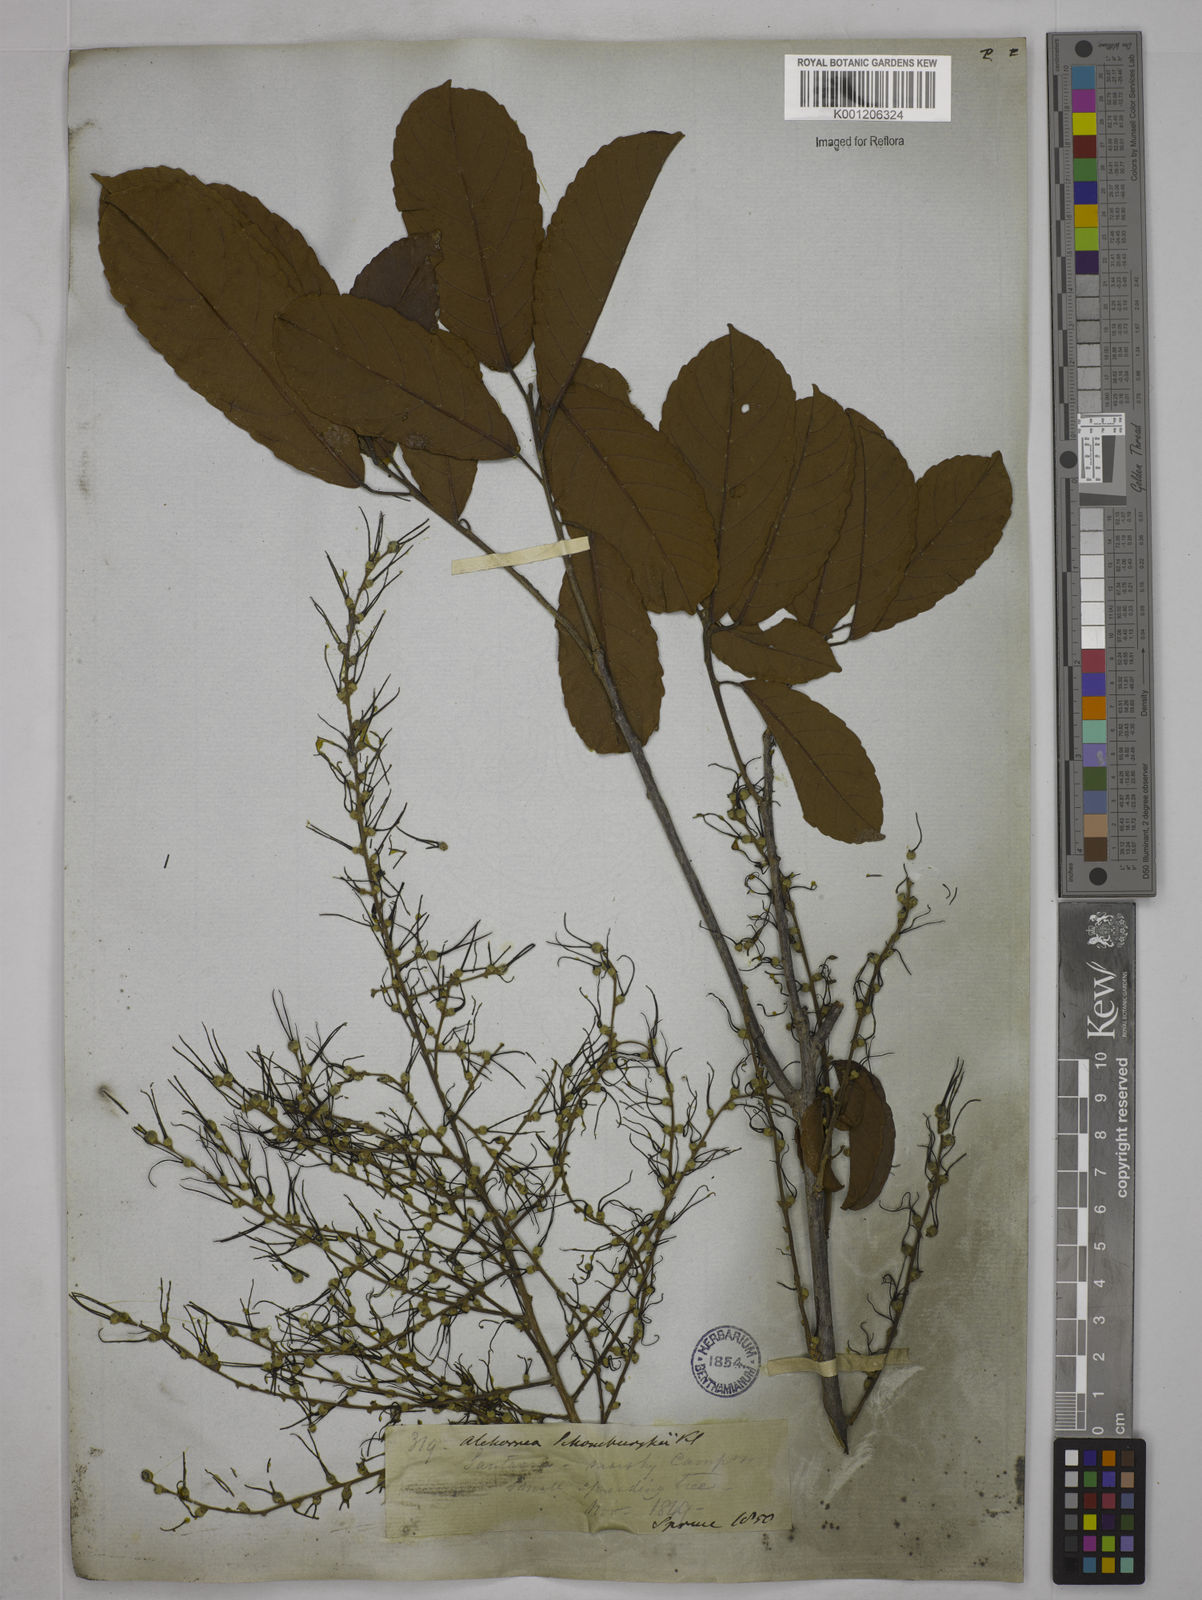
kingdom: Plantae
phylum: Tracheophyta
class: Magnoliopsida
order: Malpighiales
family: Euphorbiaceae
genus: Alchornea
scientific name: Alchornea discolor
